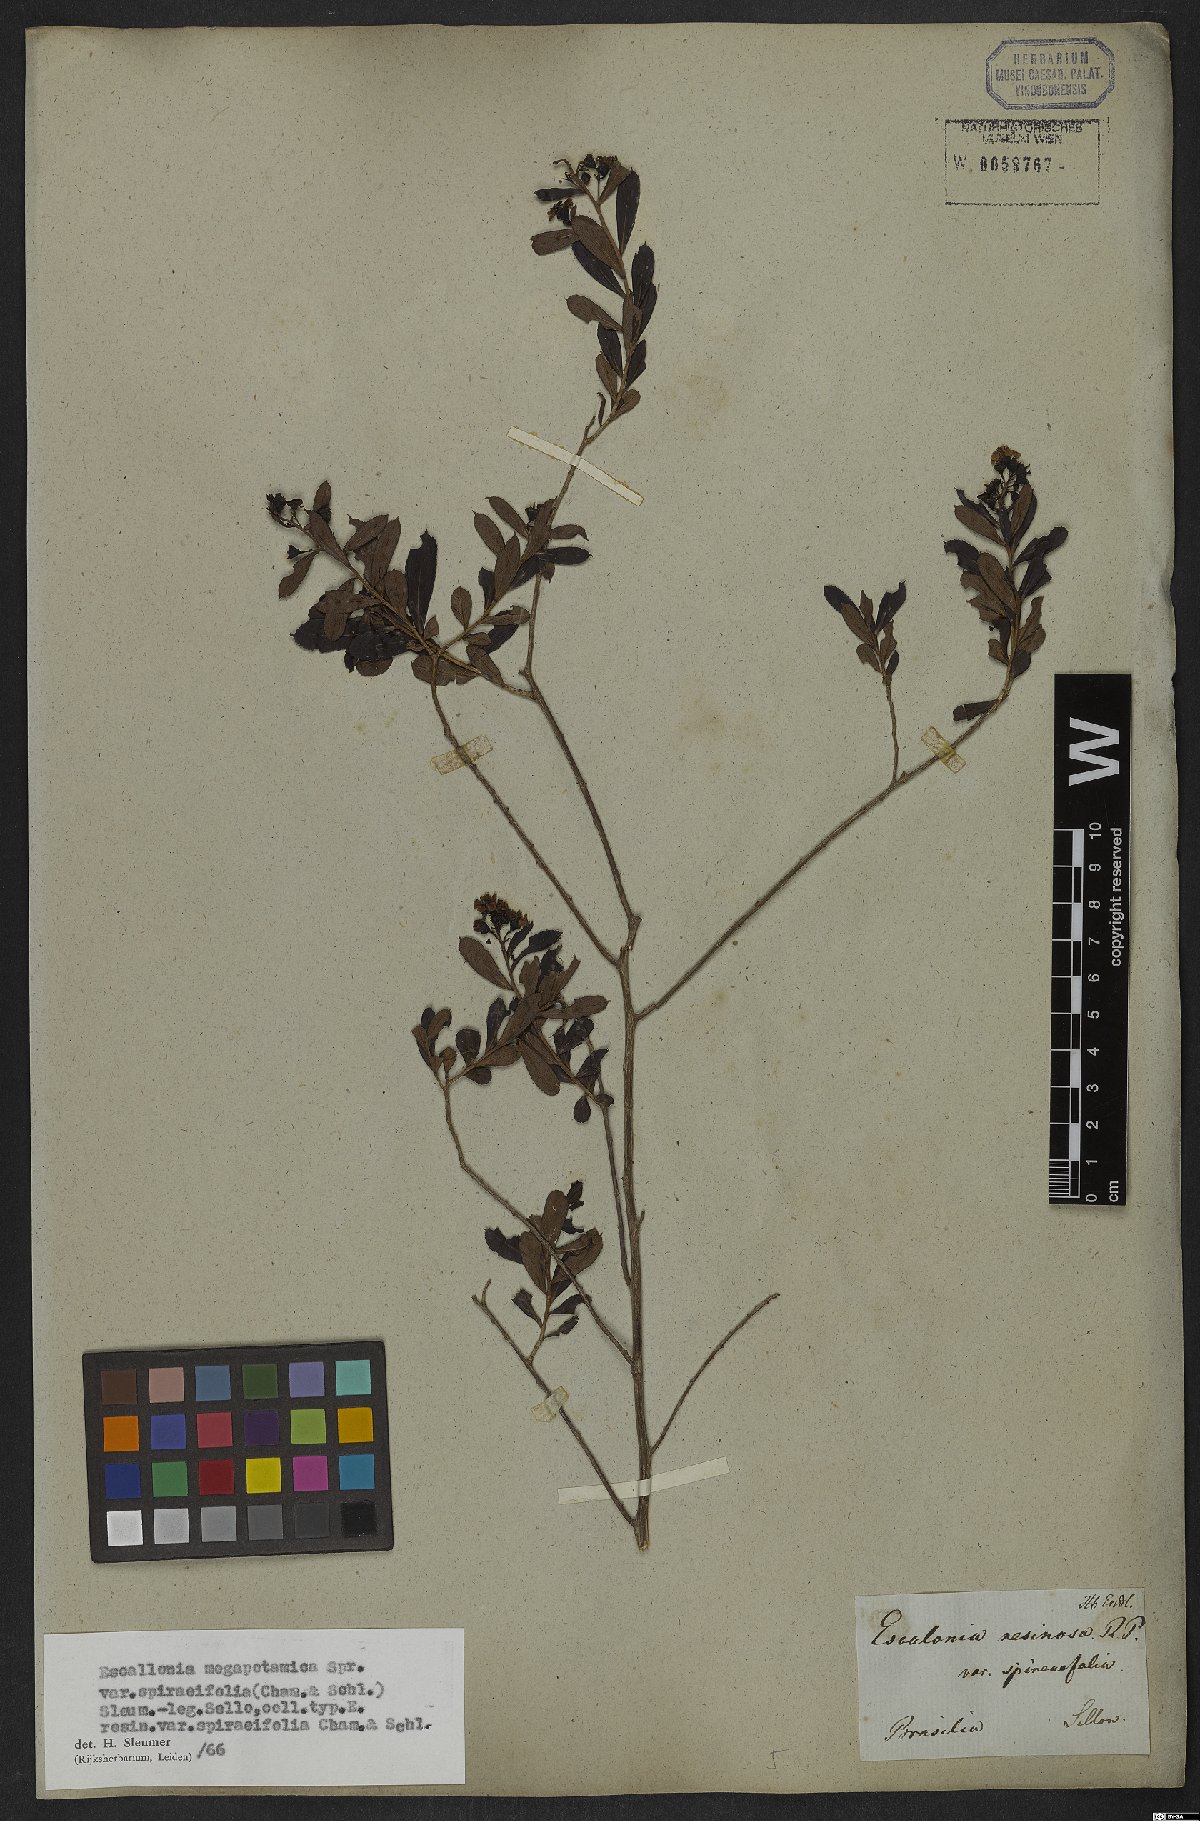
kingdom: Plantae
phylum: Tracheophyta
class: Magnoliopsida
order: Escalloniales
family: Escalloniaceae
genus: Escallonia
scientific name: Escallonia megapotamica
